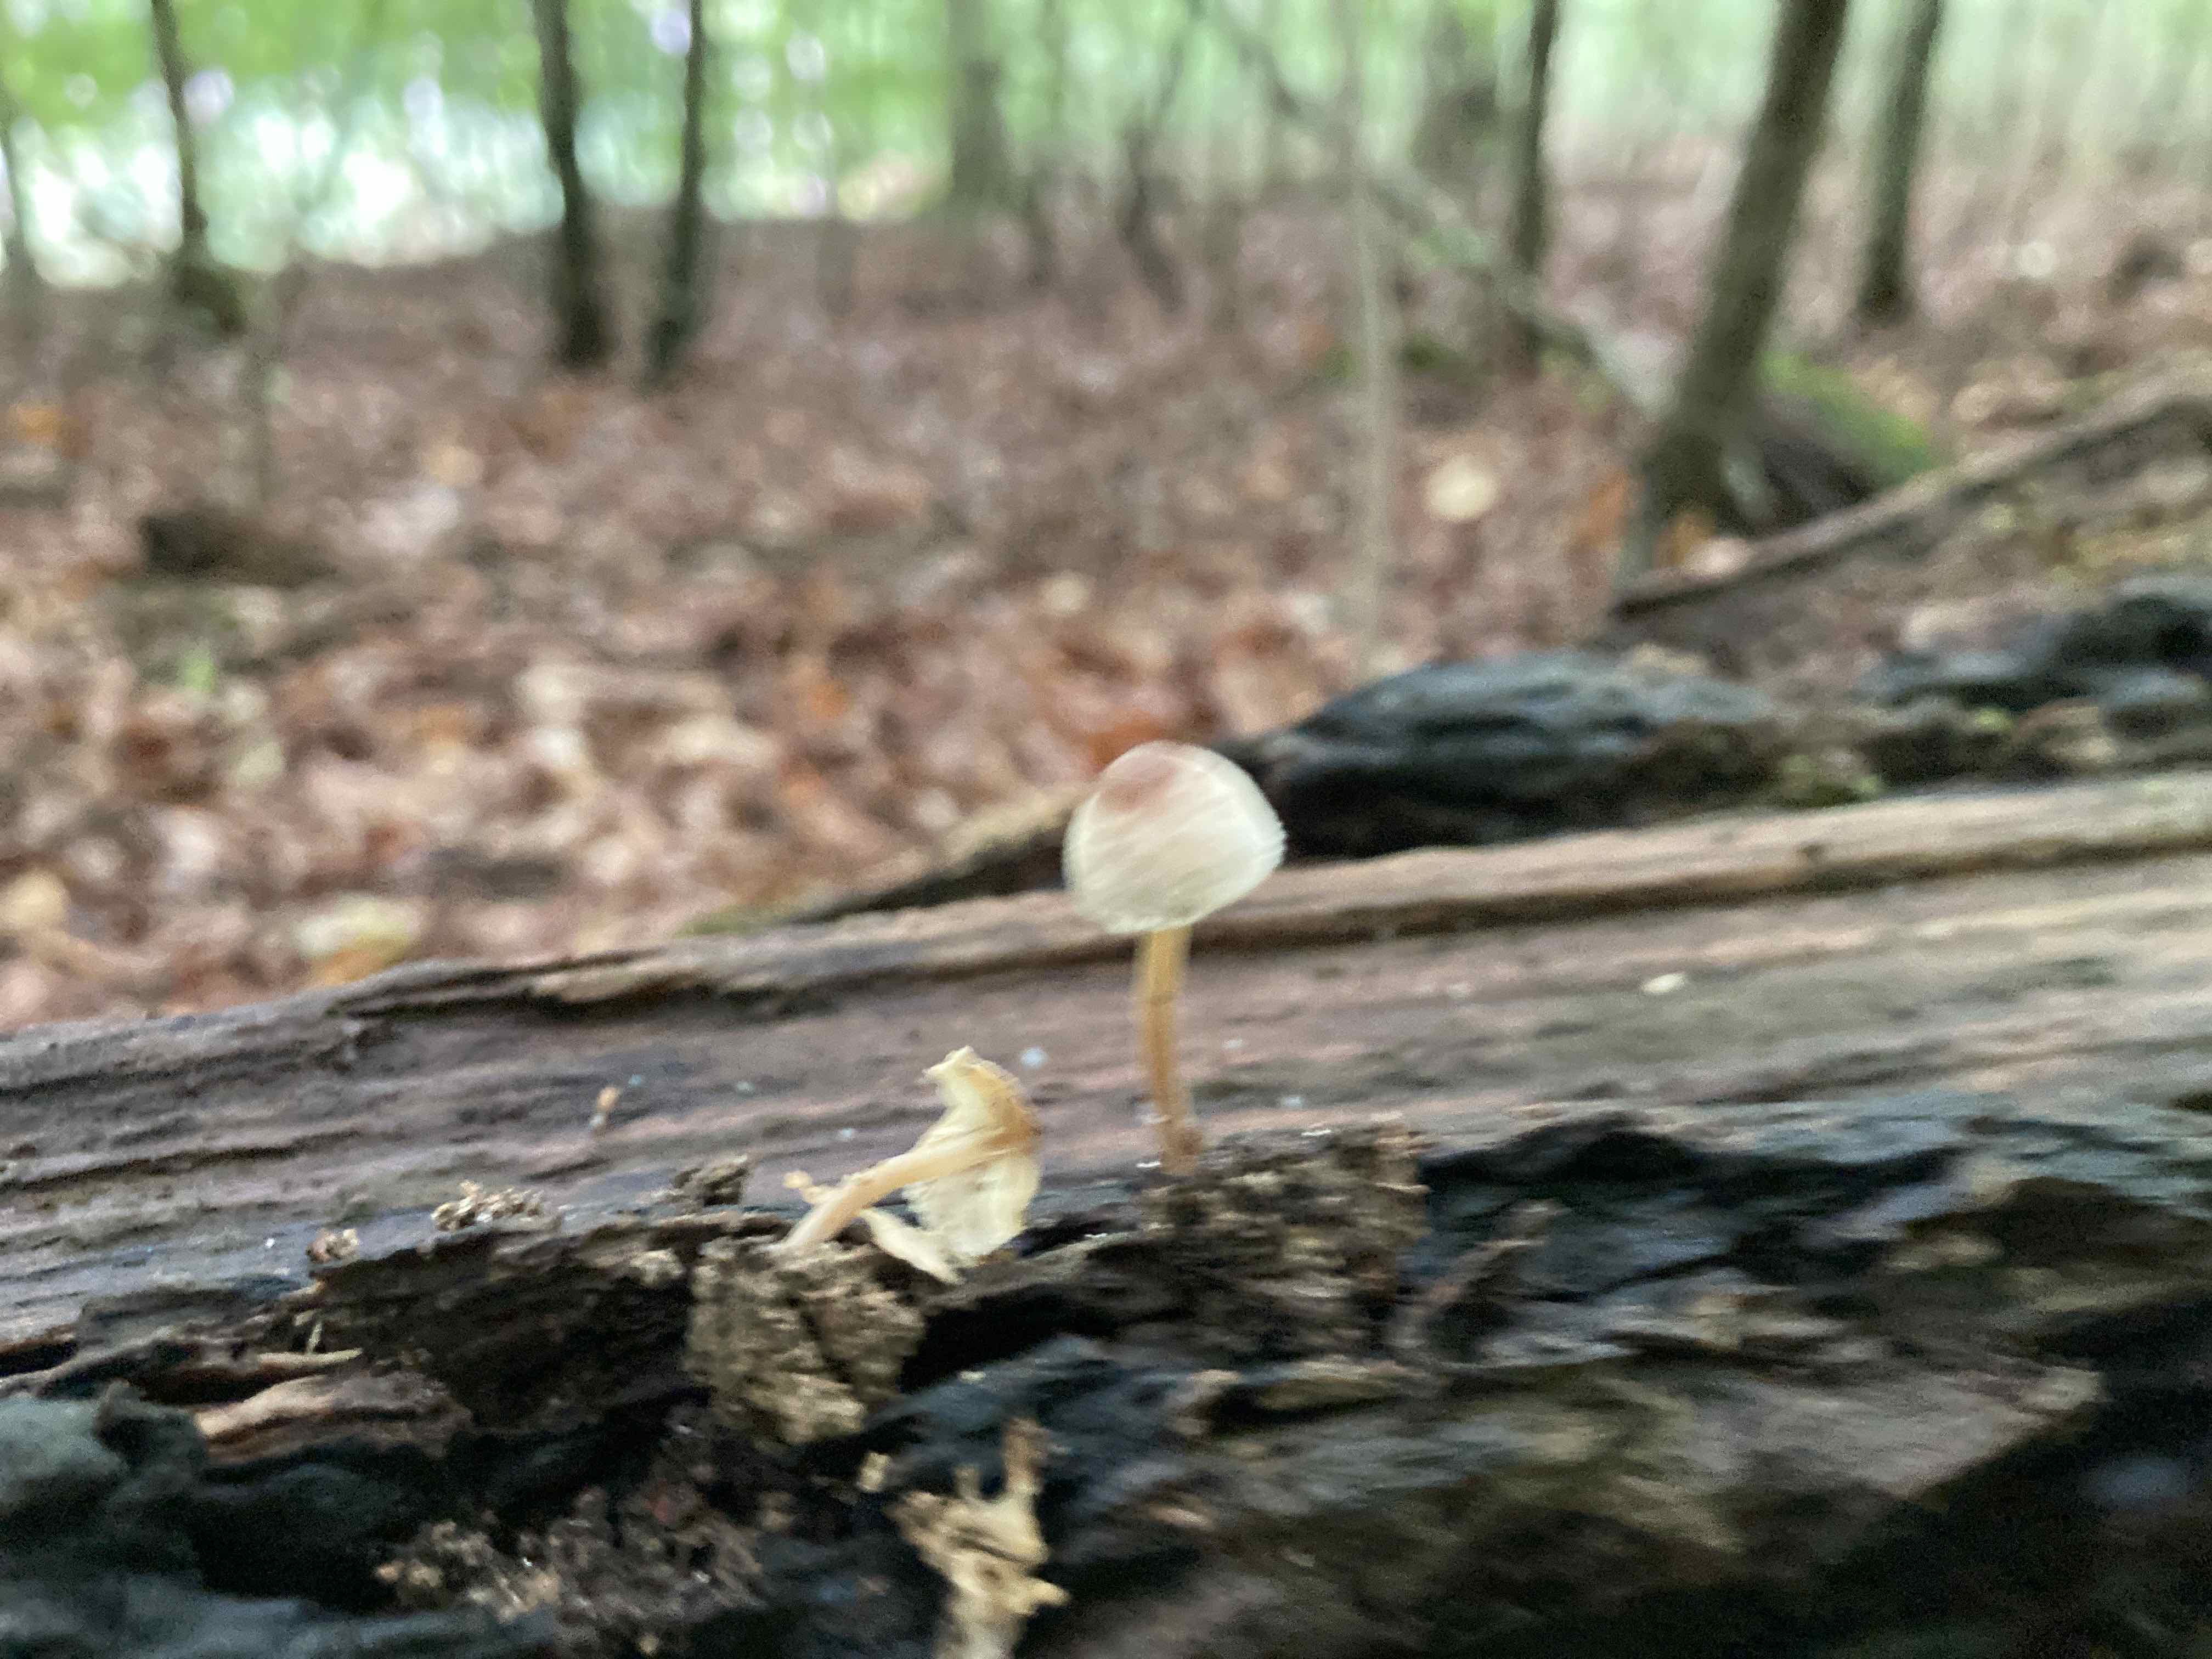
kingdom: Fungi
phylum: Basidiomycota
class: Agaricomycetes
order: Agaricales
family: Inocybaceae
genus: Inocybe
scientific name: Inocybe petiginosa
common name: liden trævlhat
